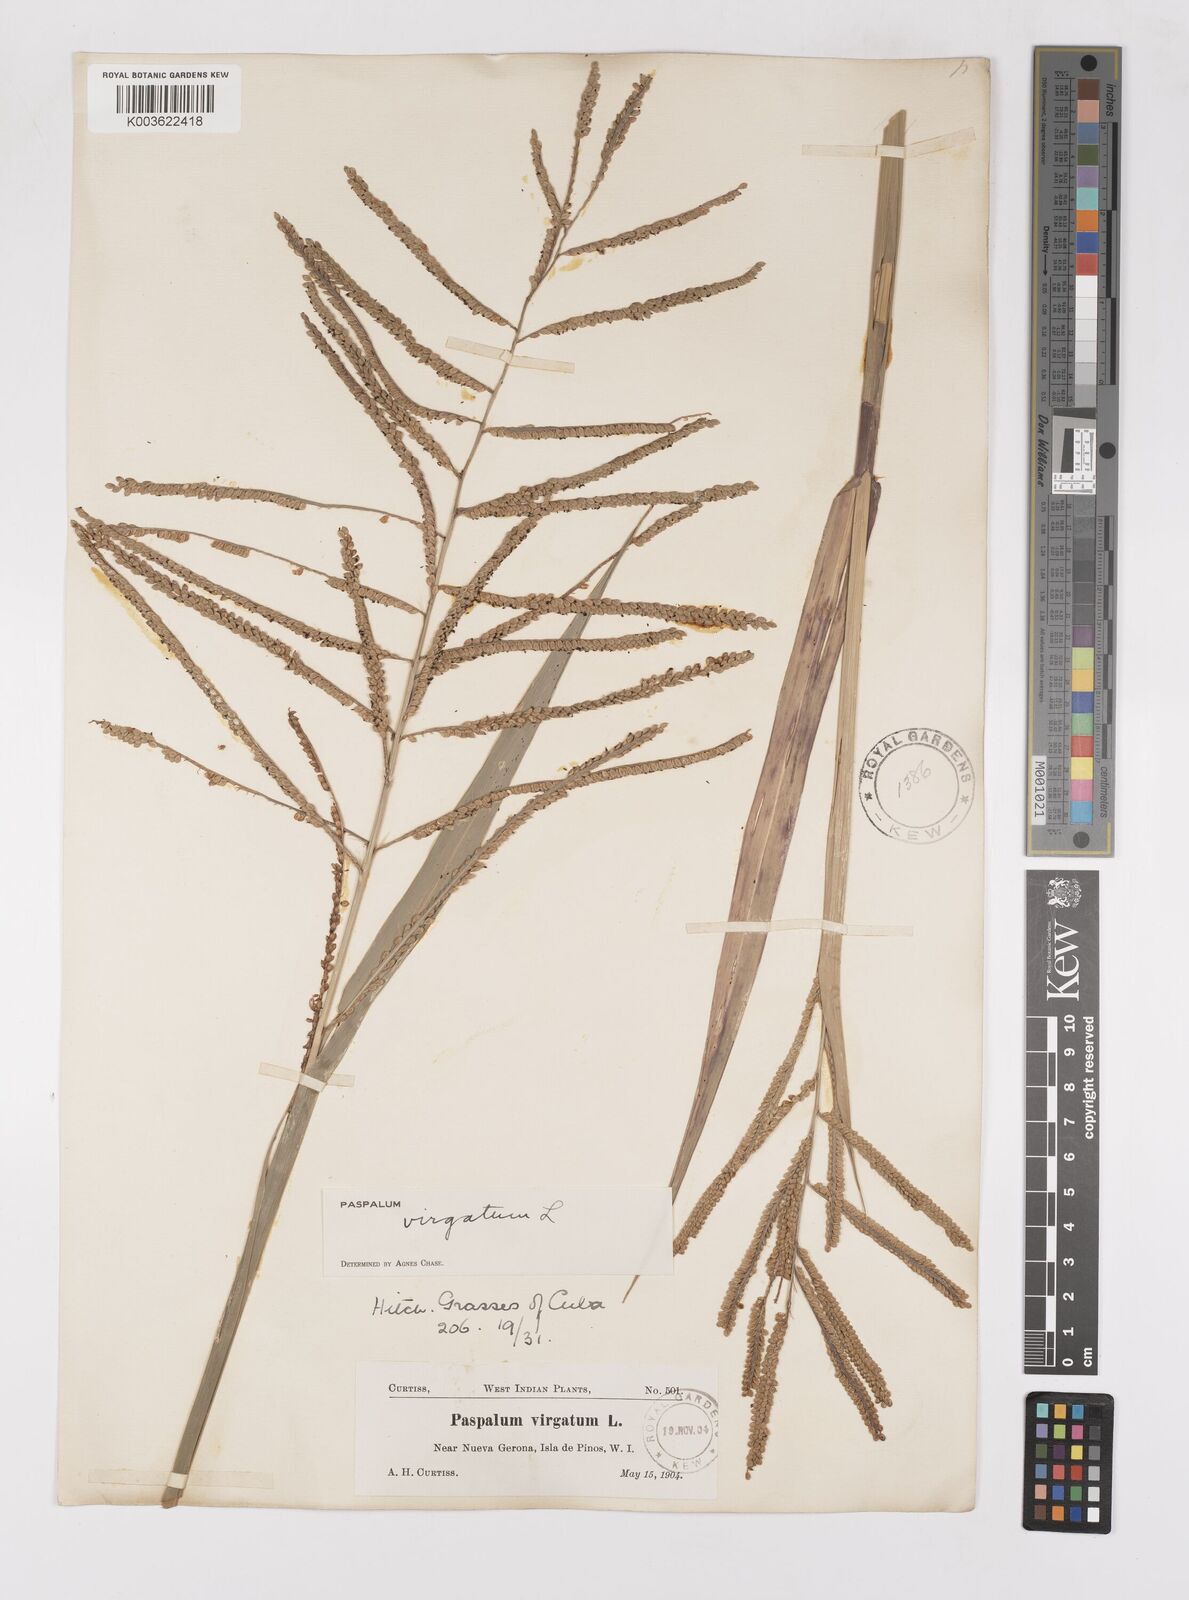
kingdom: Plantae
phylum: Tracheophyta
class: Liliopsida
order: Poales
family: Poaceae
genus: Paspalum
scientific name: Paspalum virgatum
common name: Talquezal
